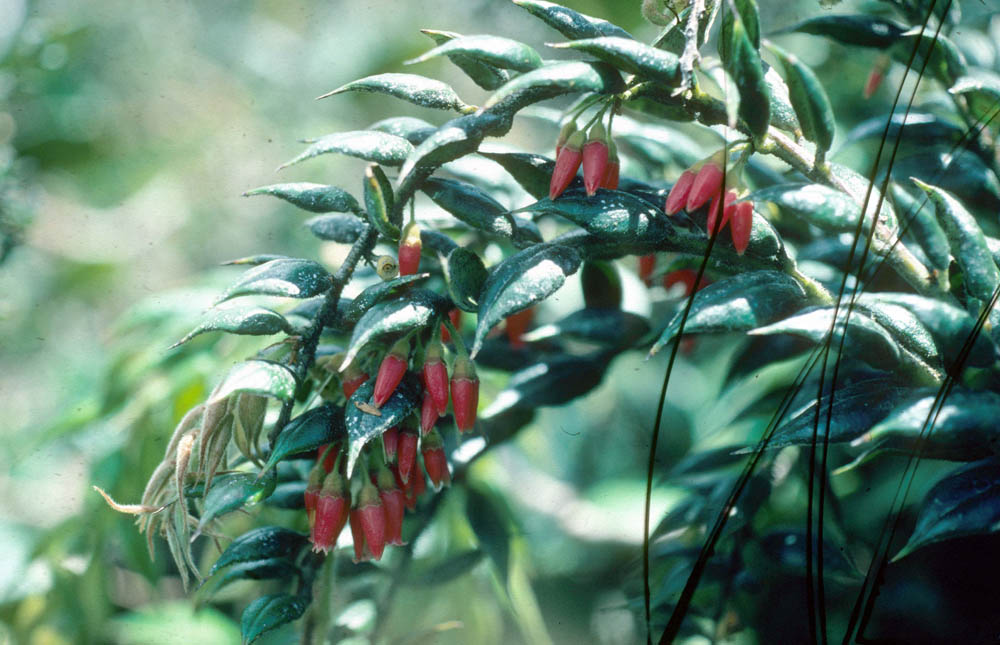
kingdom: Plantae
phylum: Tracheophyta
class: Magnoliopsida
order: Ericales
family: Ericaceae
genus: Themistoclesia
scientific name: Themistoclesia epiphytica
